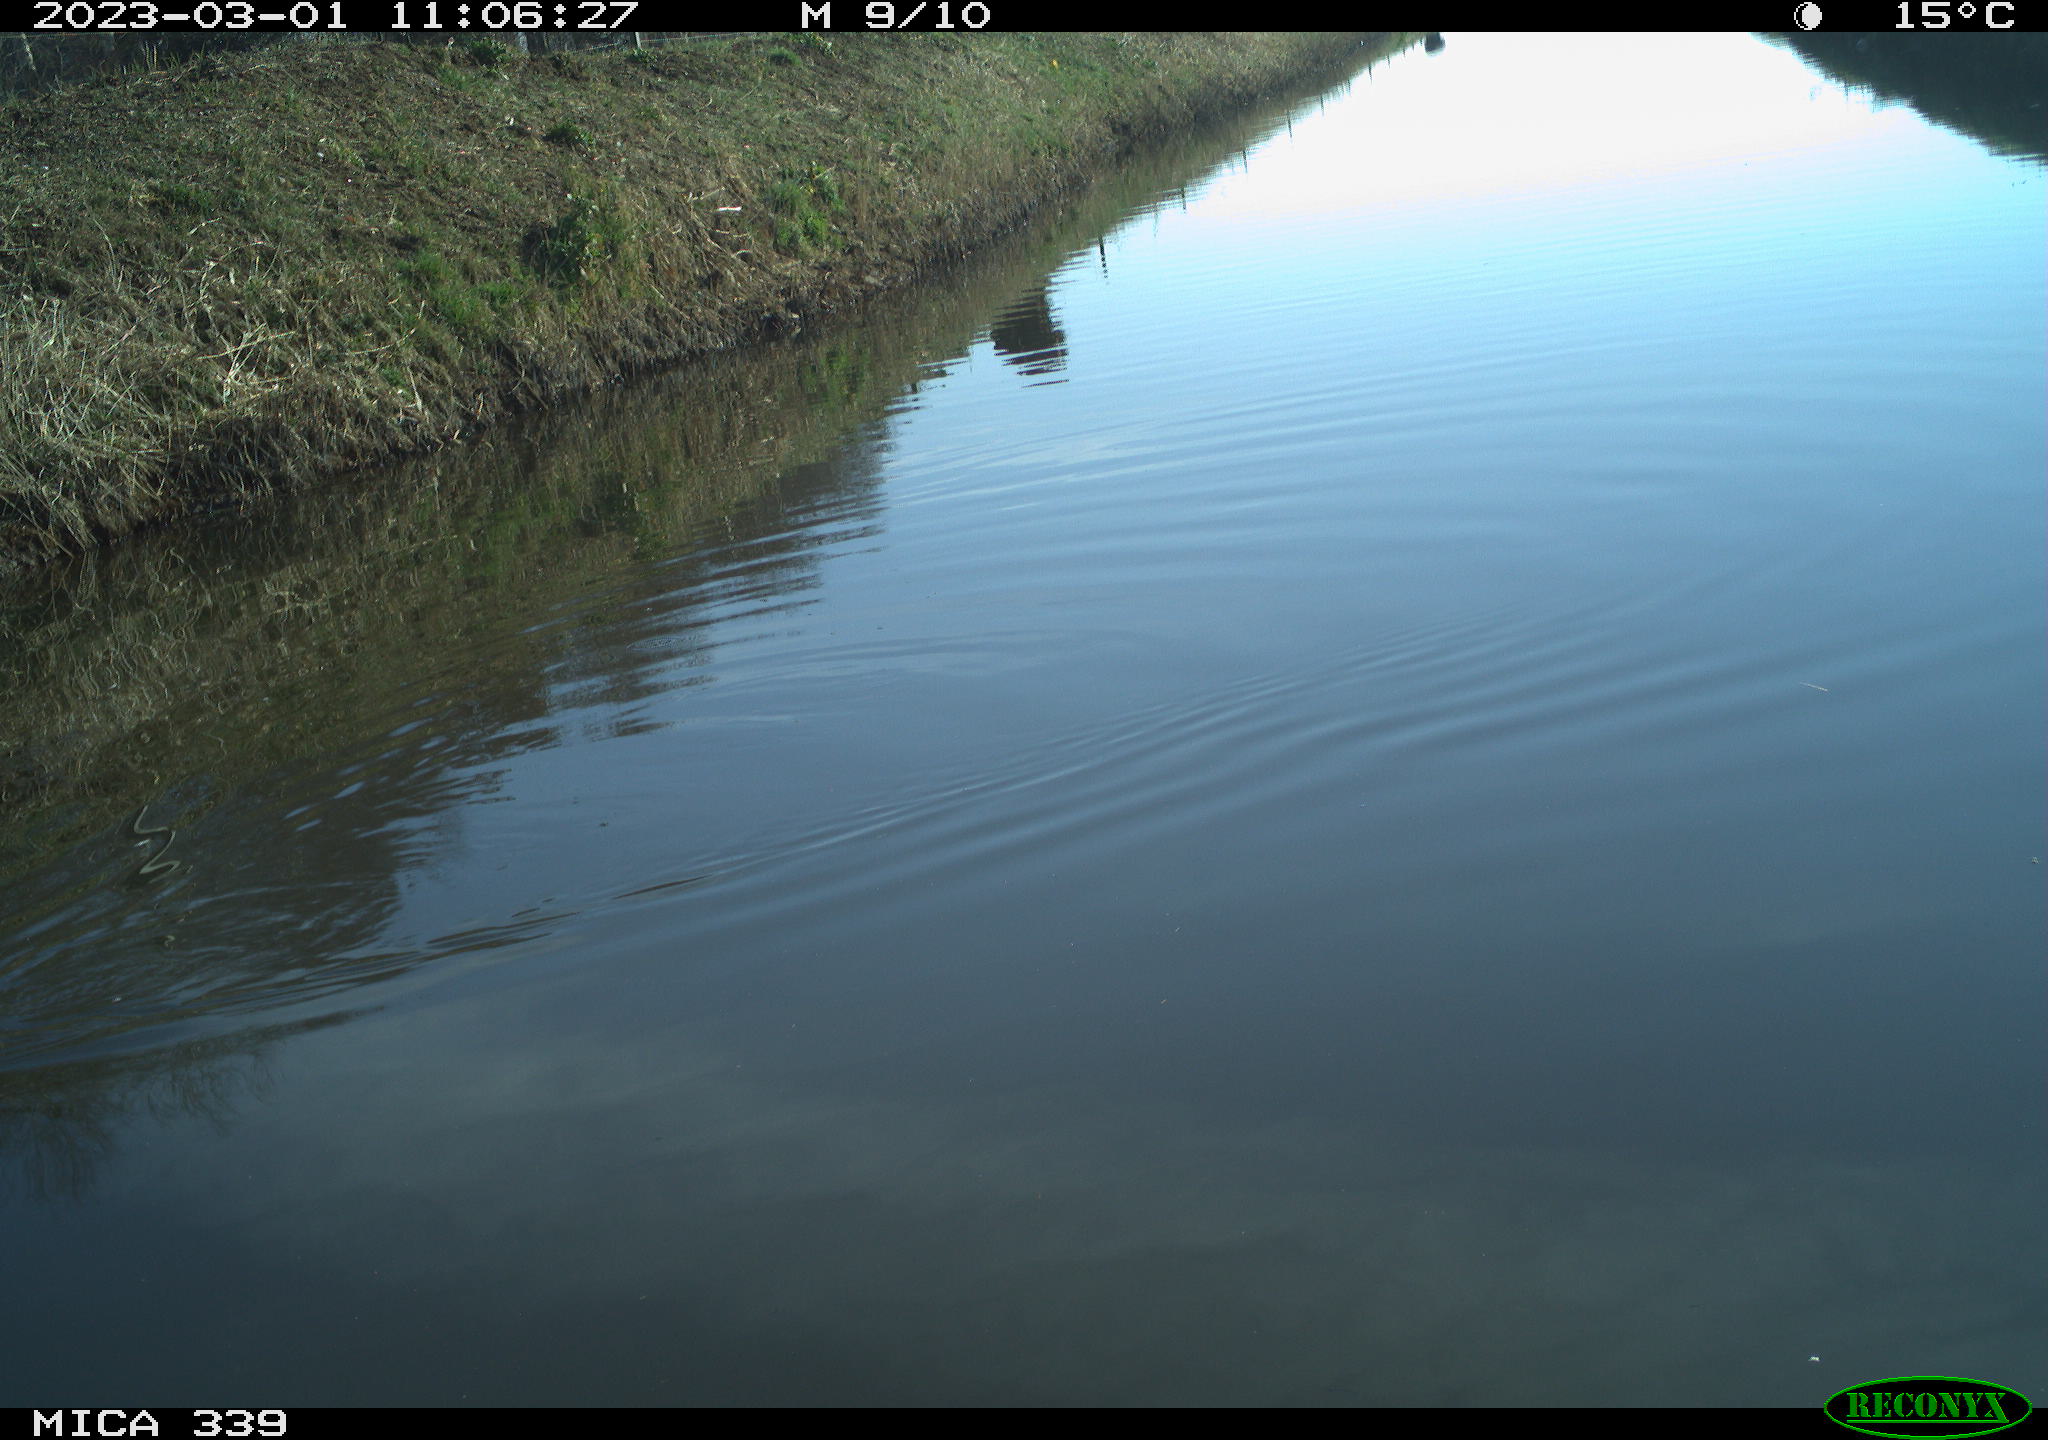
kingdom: Animalia
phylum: Chordata
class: Aves
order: Anseriformes
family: Anatidae
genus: Anas
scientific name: Anas
